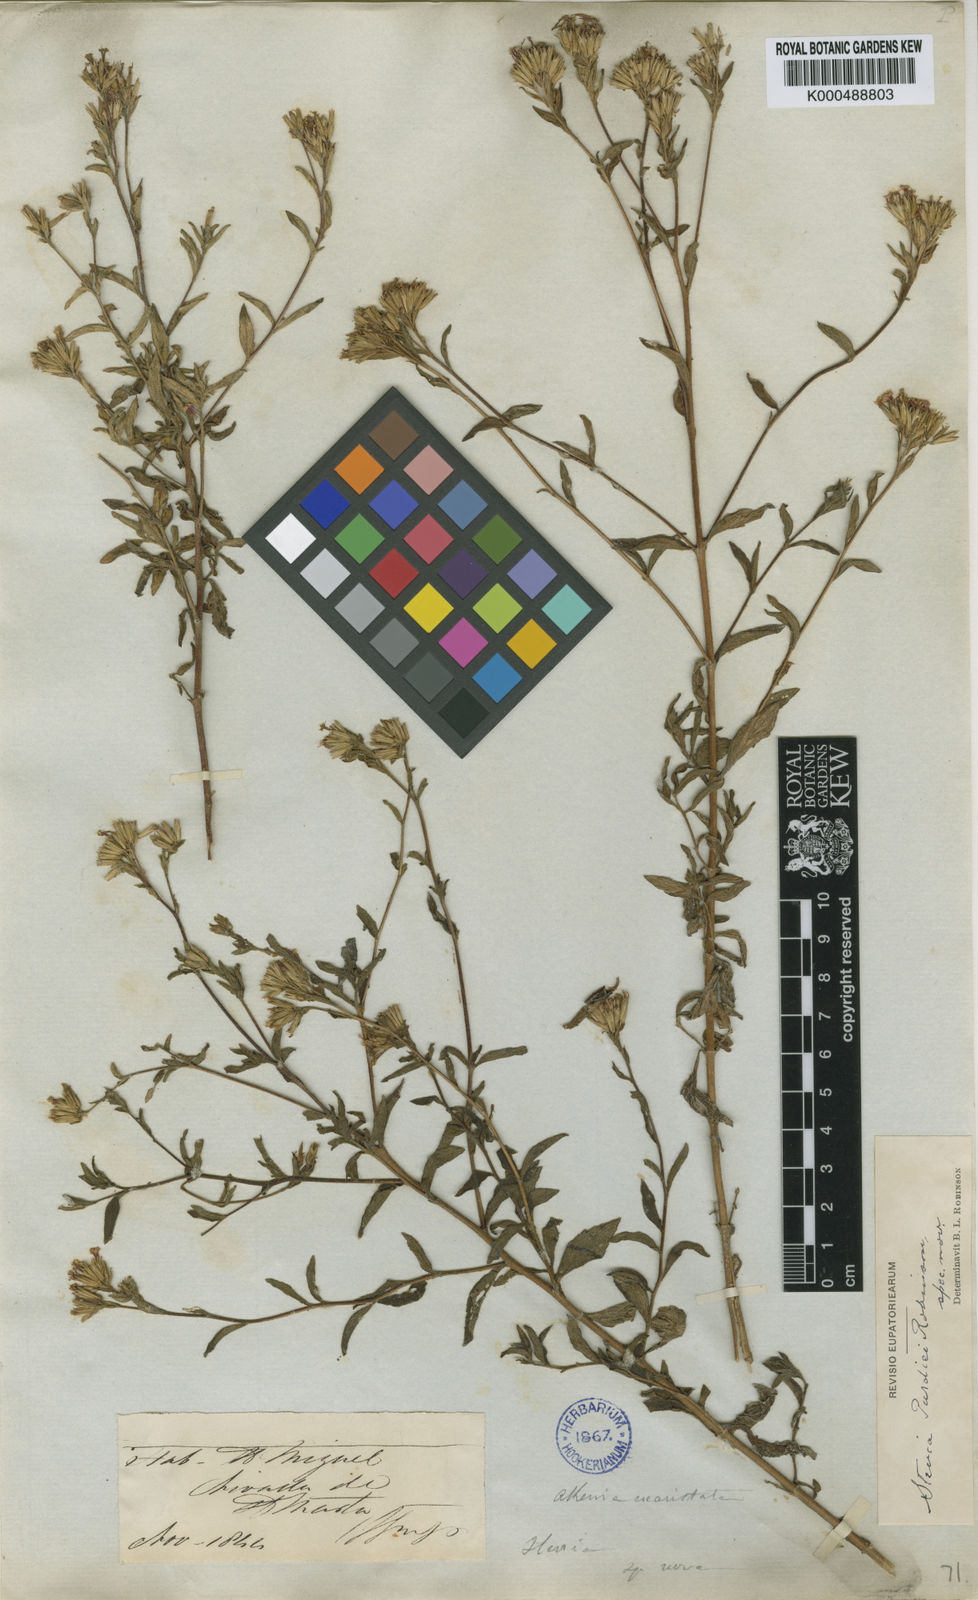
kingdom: Plantae
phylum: Tracheophyta
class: Magnoliopsida
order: Asterales
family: Asteraceae
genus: Stevia
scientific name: Stevia purdiei
